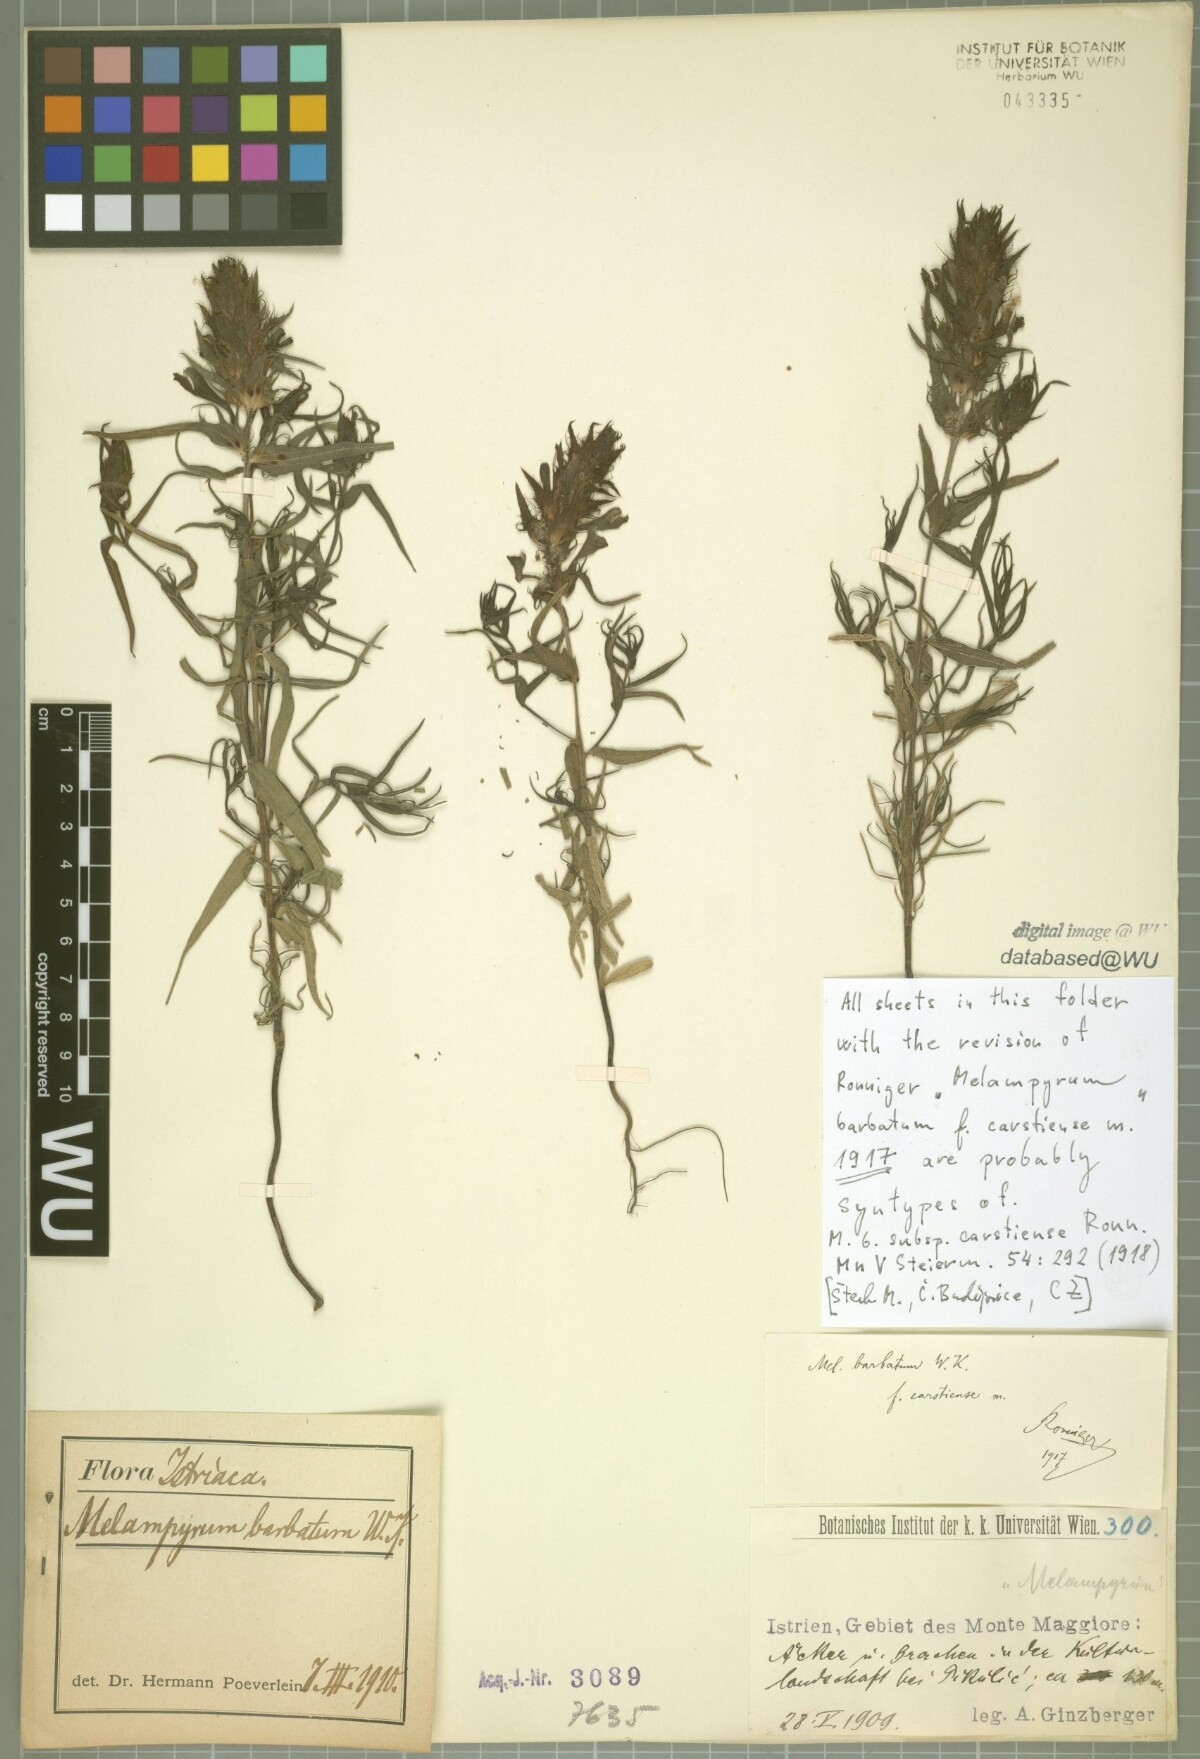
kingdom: Plantae
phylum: Tracheophyta
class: Magnoliopsida
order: Lamiales
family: Orobanchaceae
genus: Melampyrum
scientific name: Melampyrum barbatum
